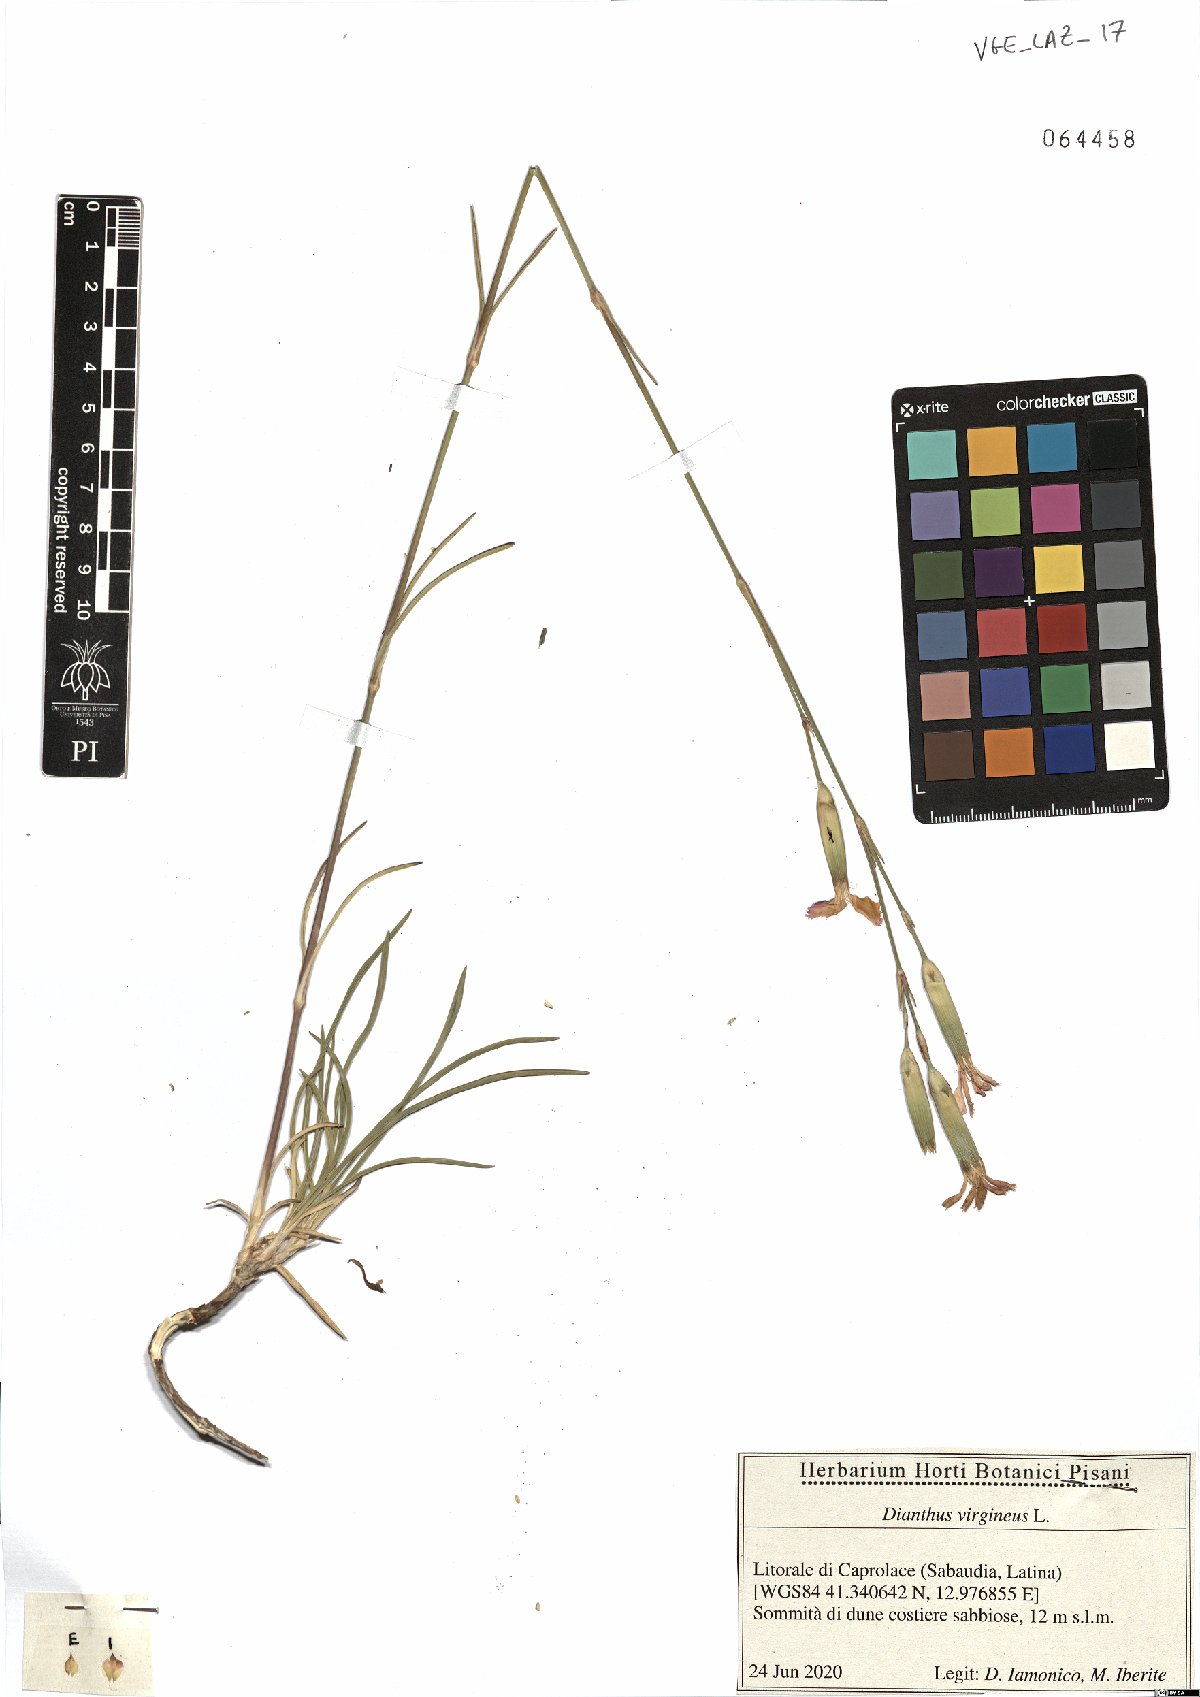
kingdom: Plantae
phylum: Tracheophyta
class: Magnoliopsida
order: Caryophyllales
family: Caryophyllaceae
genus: Dianthus
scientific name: Dianthus virgineus
